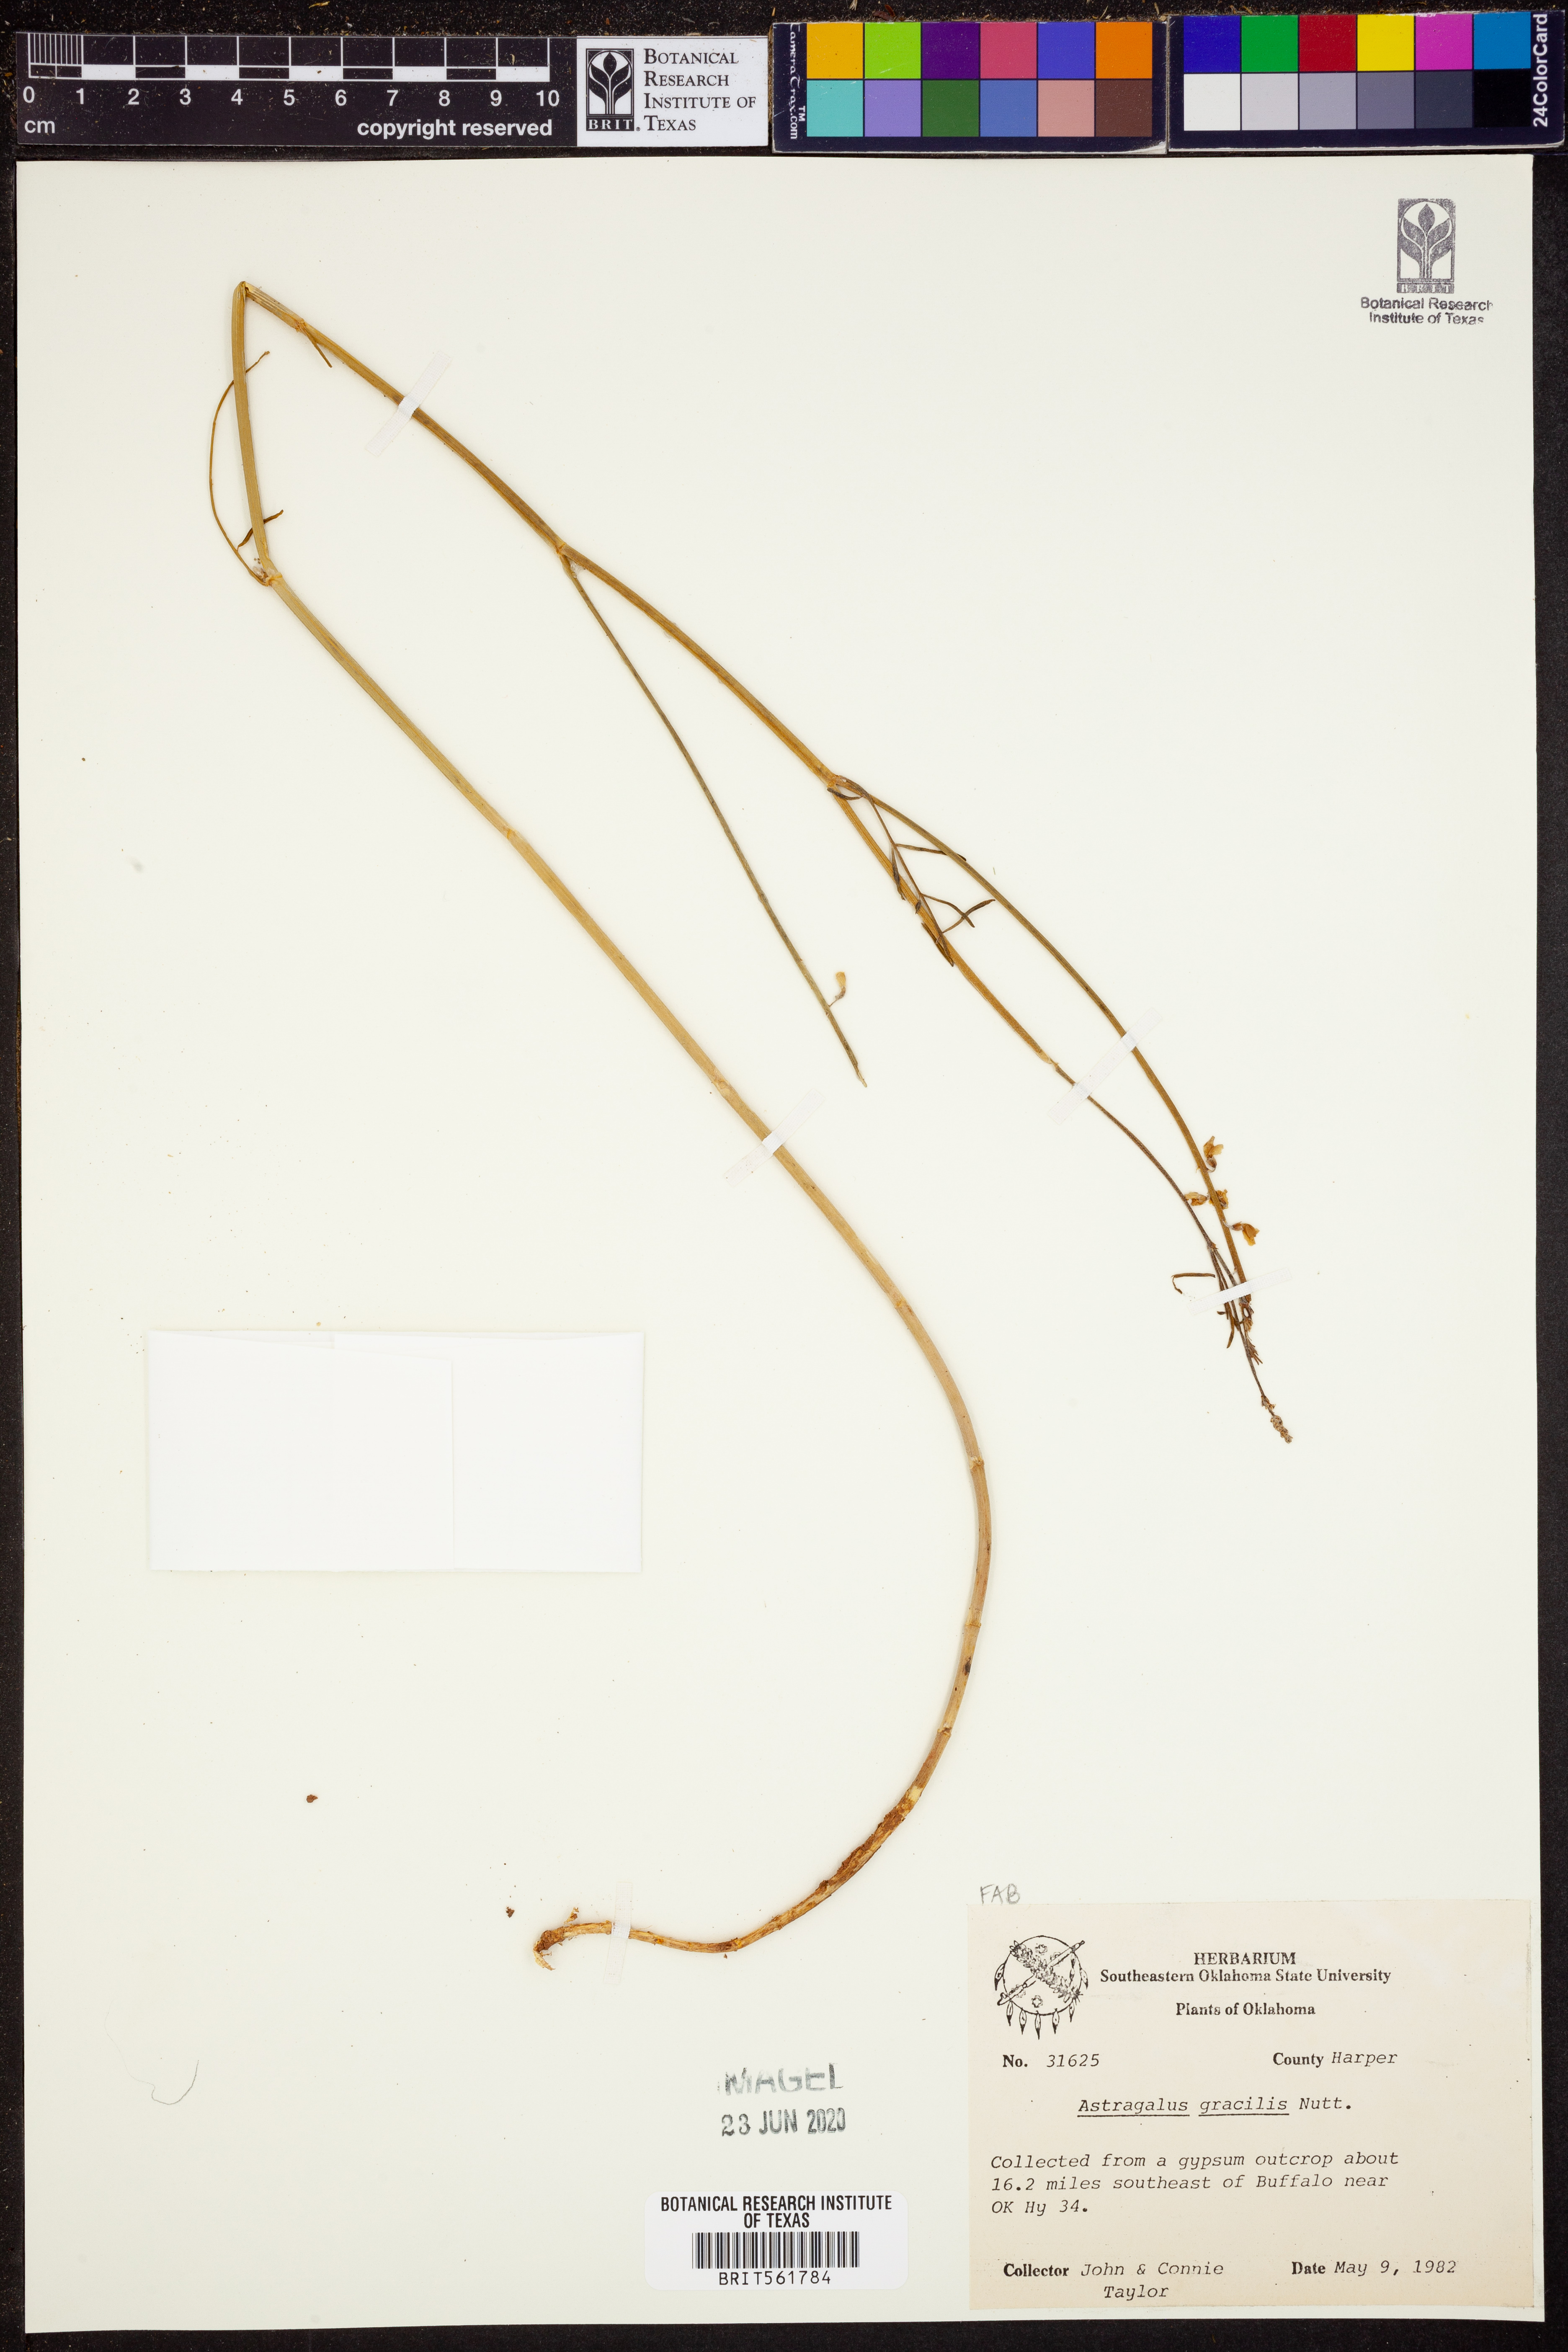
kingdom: Plantae
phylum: Tracheophyta
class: Magnoliopsida
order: Fabales
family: Fabaceae
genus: Astragalus
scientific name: Astragalus gracilis
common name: Slender milk-vetch
